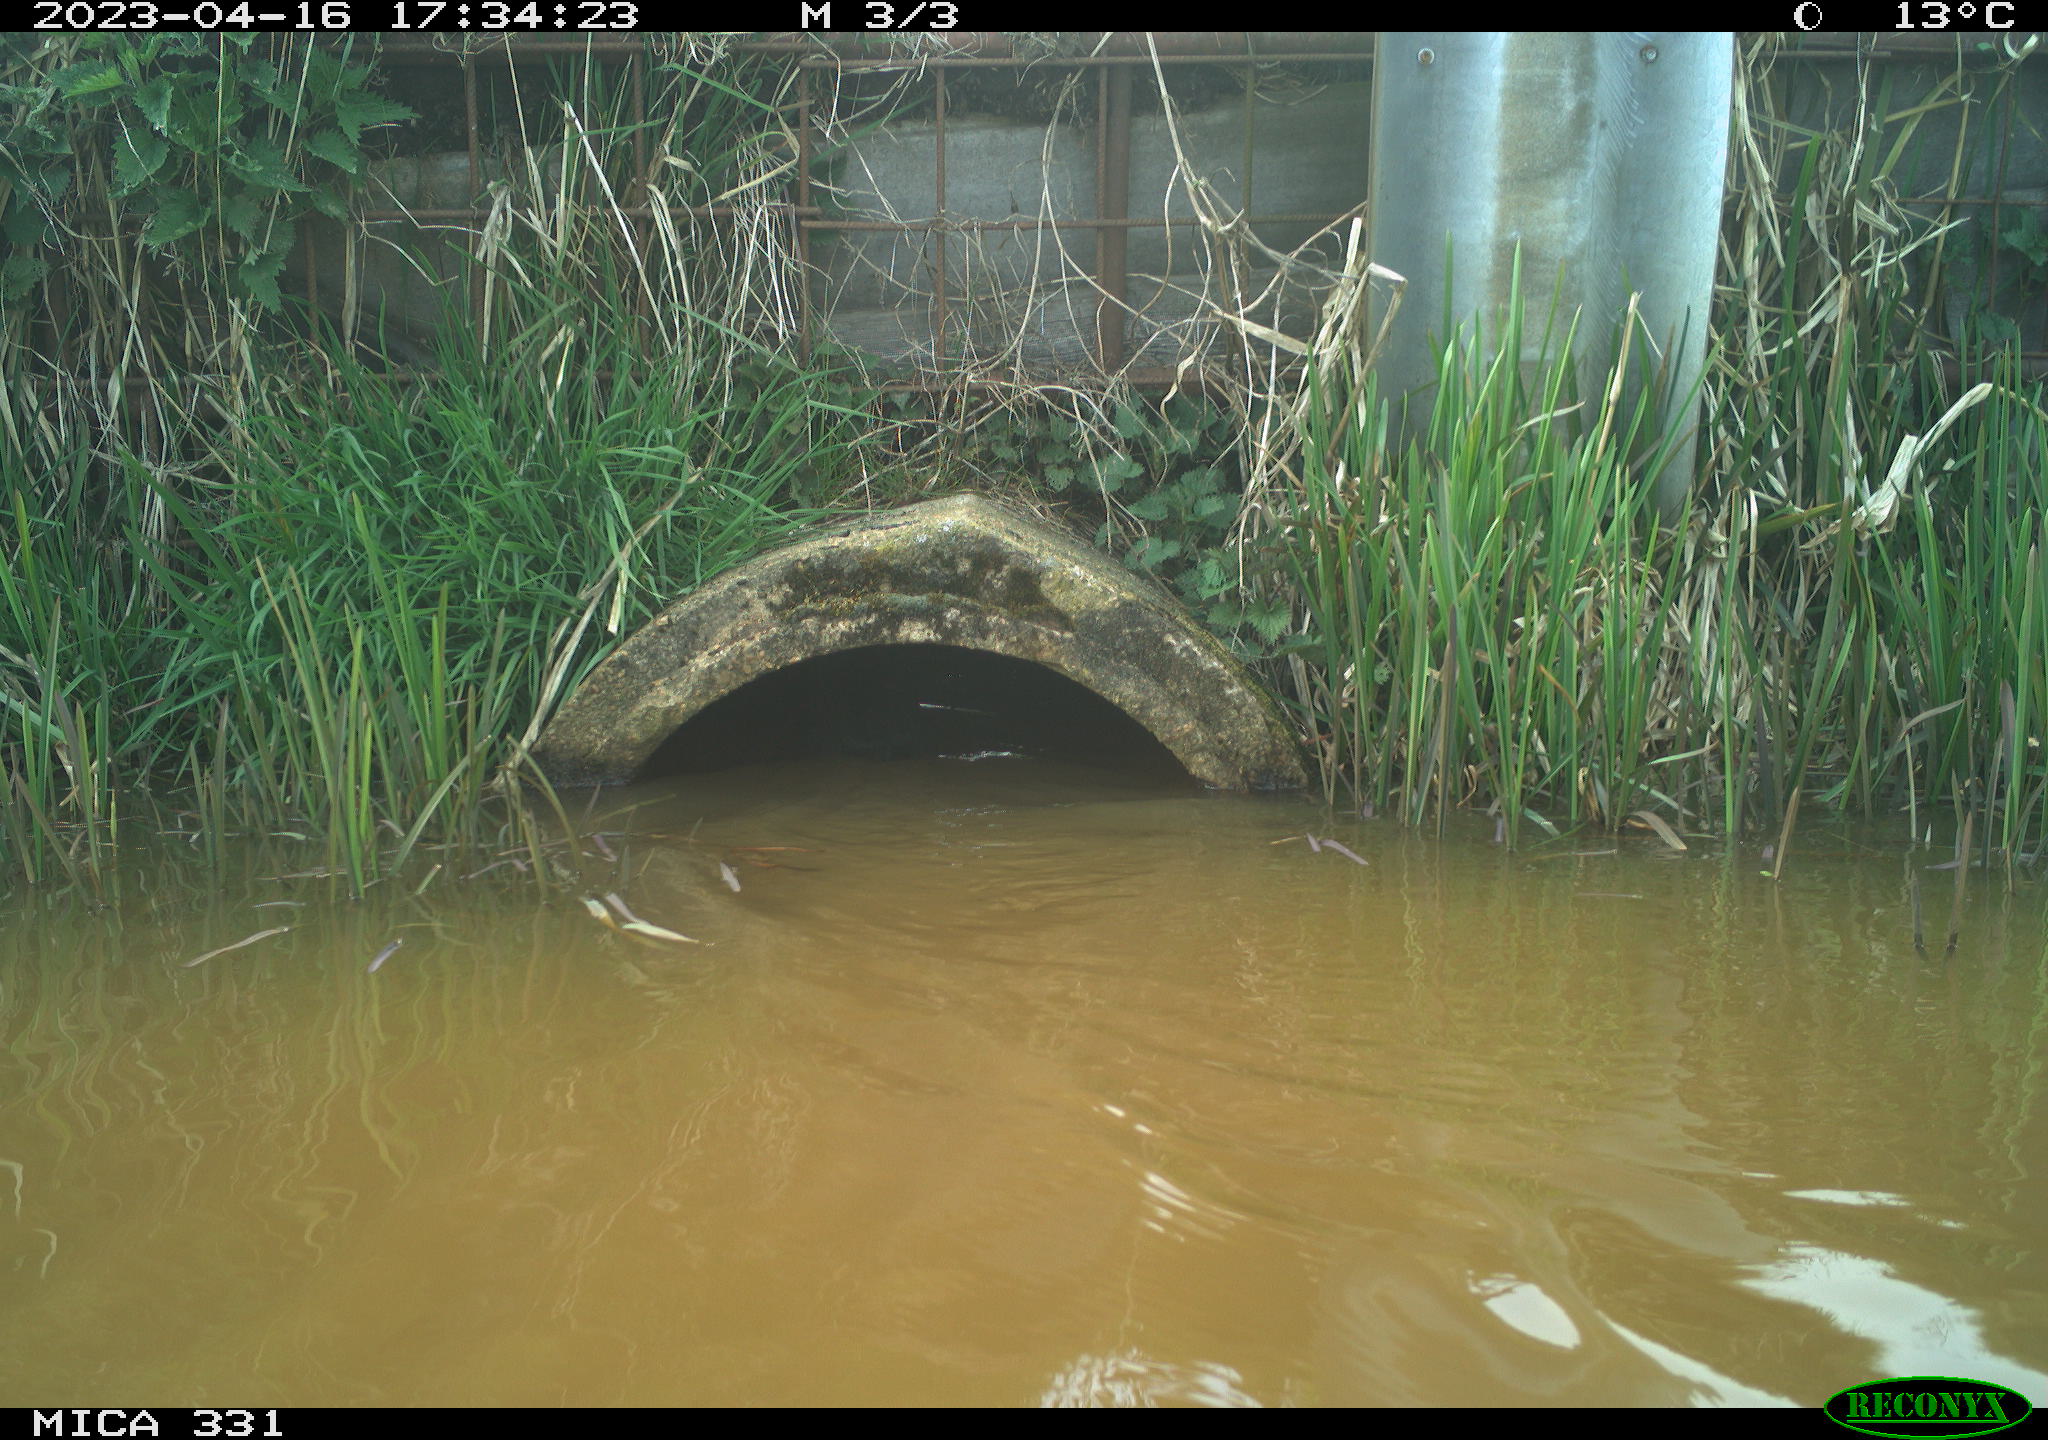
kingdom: Animalia
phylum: Chordata
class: Aves
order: Gruiformes
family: Rallidae
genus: Gallinula
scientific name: Gallinula chloropus
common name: Common moorhen
